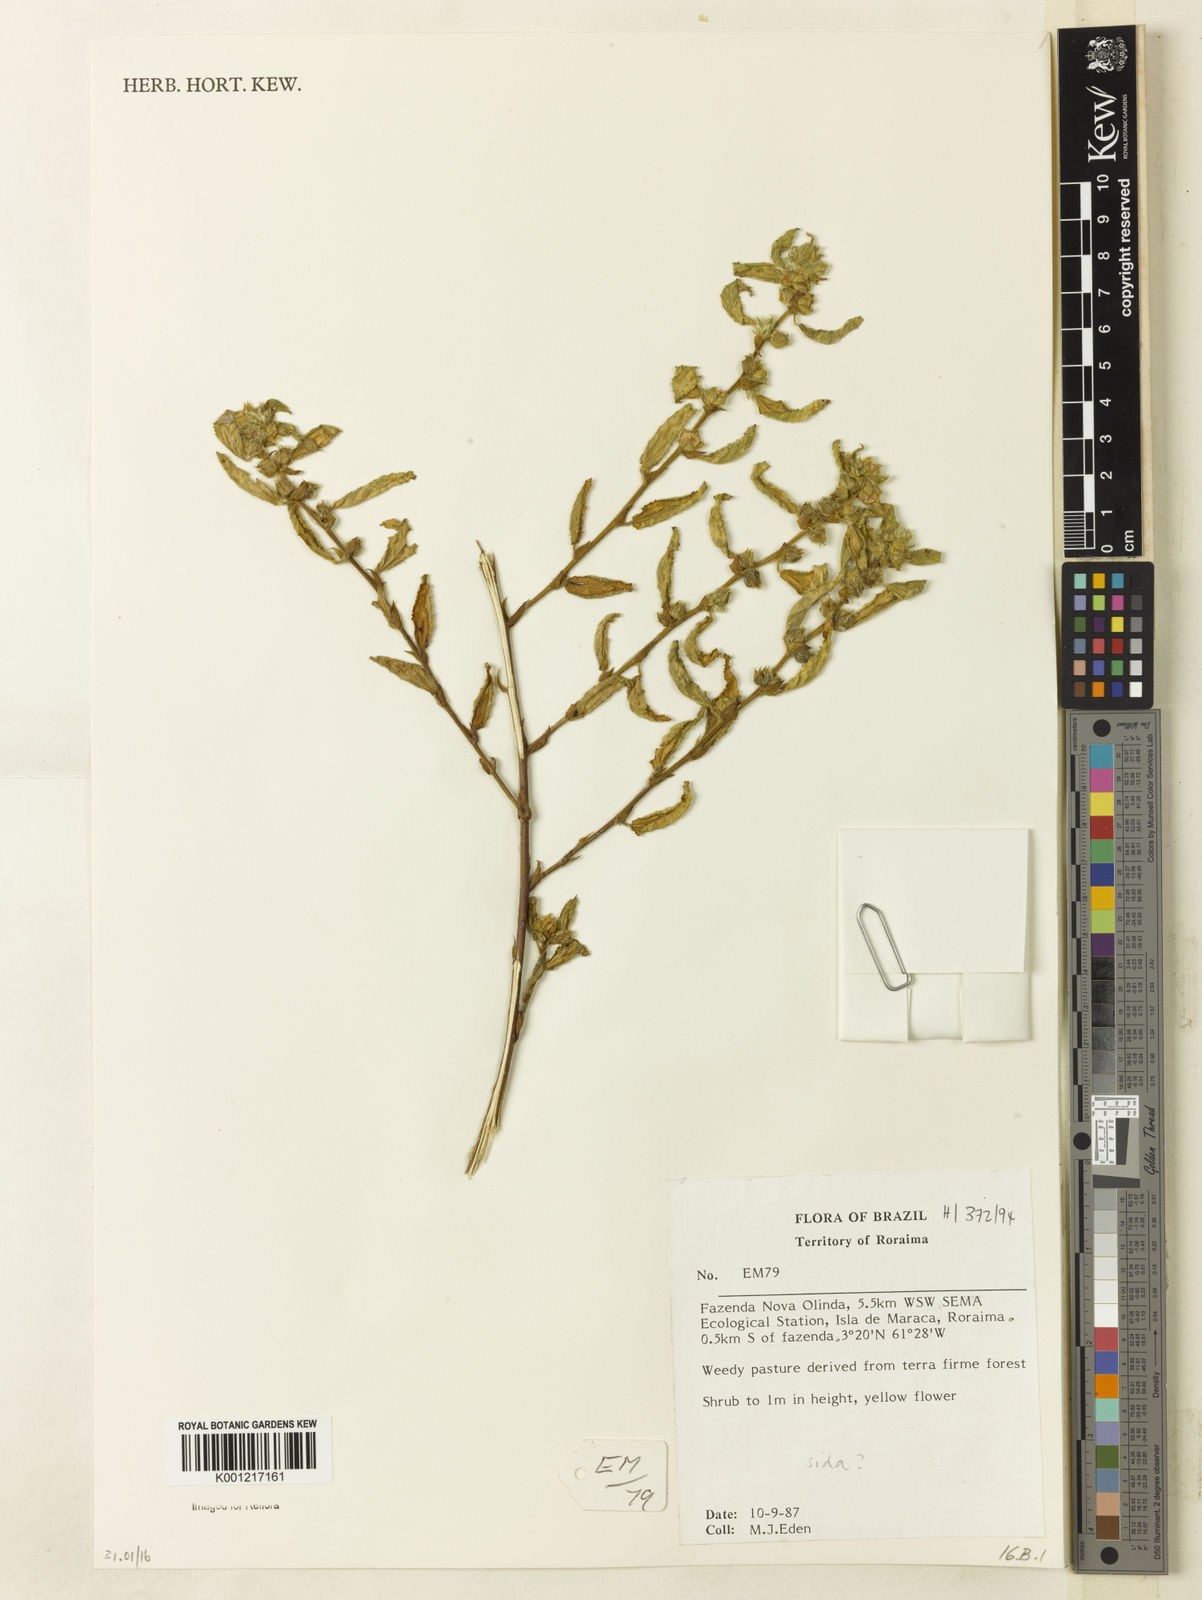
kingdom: Plantae
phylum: Tracheophyta
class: Magnoliopsida
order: Malvales
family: Malvaceae
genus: Sida
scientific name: Sida
